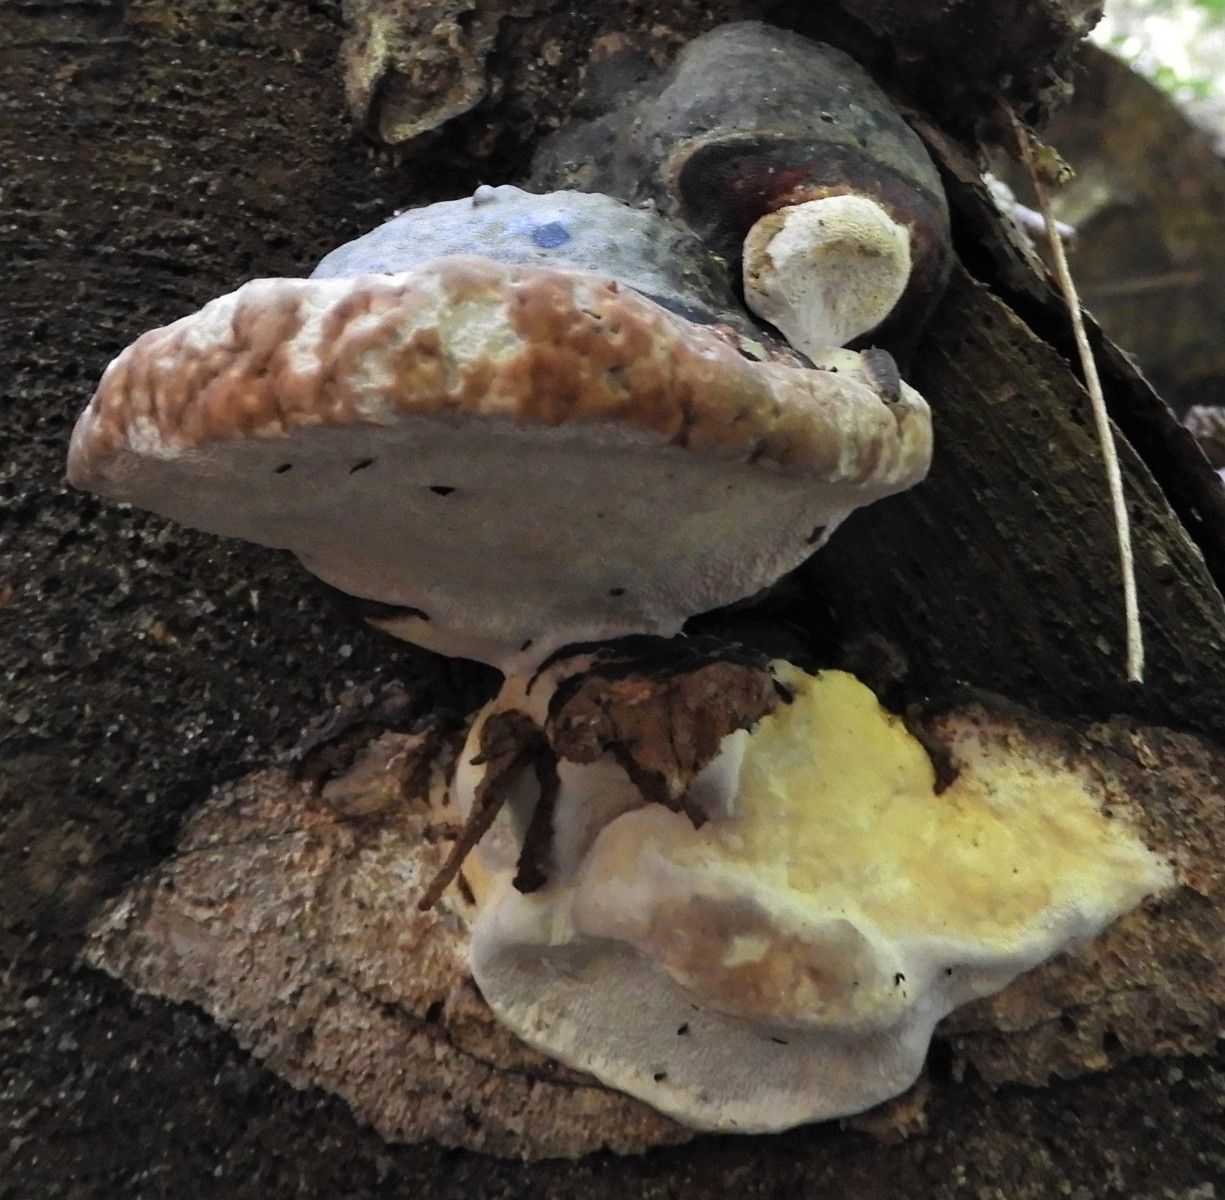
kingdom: Fungi
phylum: Basidiomycota
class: Agaricomycetes
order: Polyporales
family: Fomitopsidaceae
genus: Fomitopsis
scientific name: Fomitopsis pinicola
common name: randbæltet hovporesvamp
